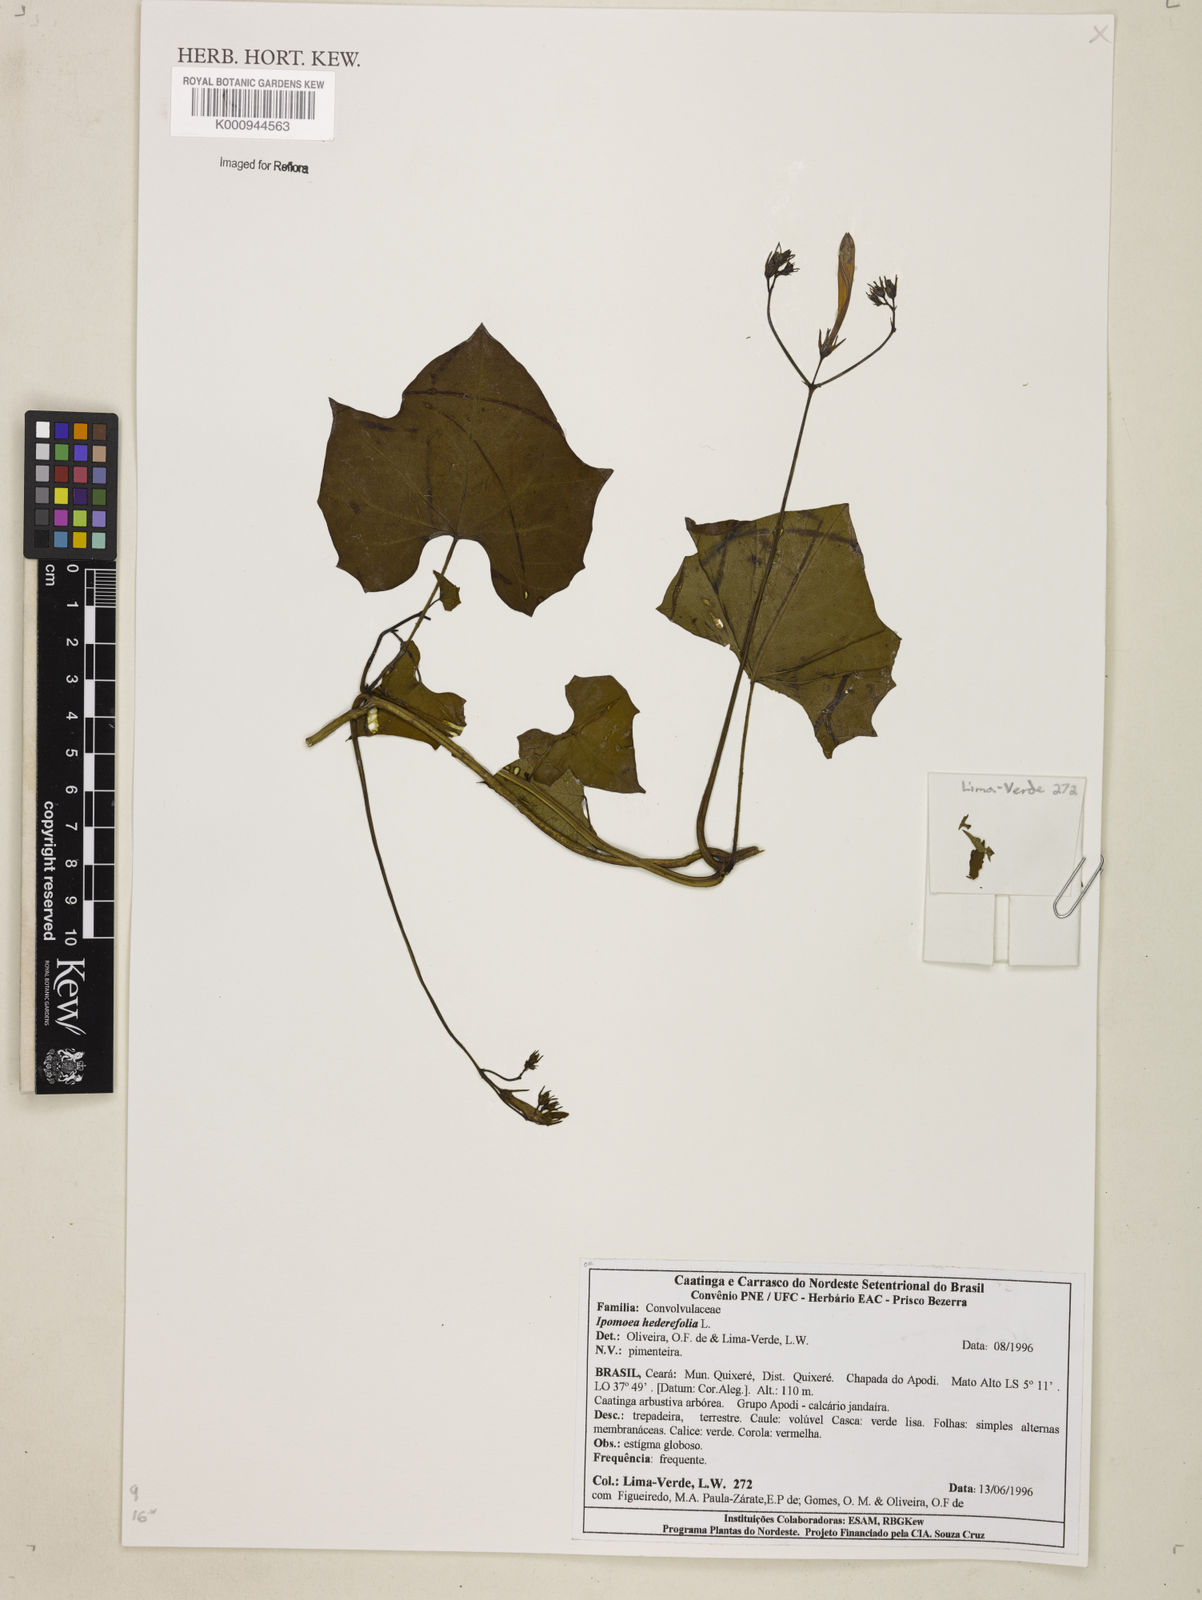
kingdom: Plantae
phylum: Tracheophyta
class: Magnoliopsida
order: Solanales
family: Convolvulaceae
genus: Ipomoea
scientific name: Ipomoea hederifolia
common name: Ivy-leaf morning-glory
